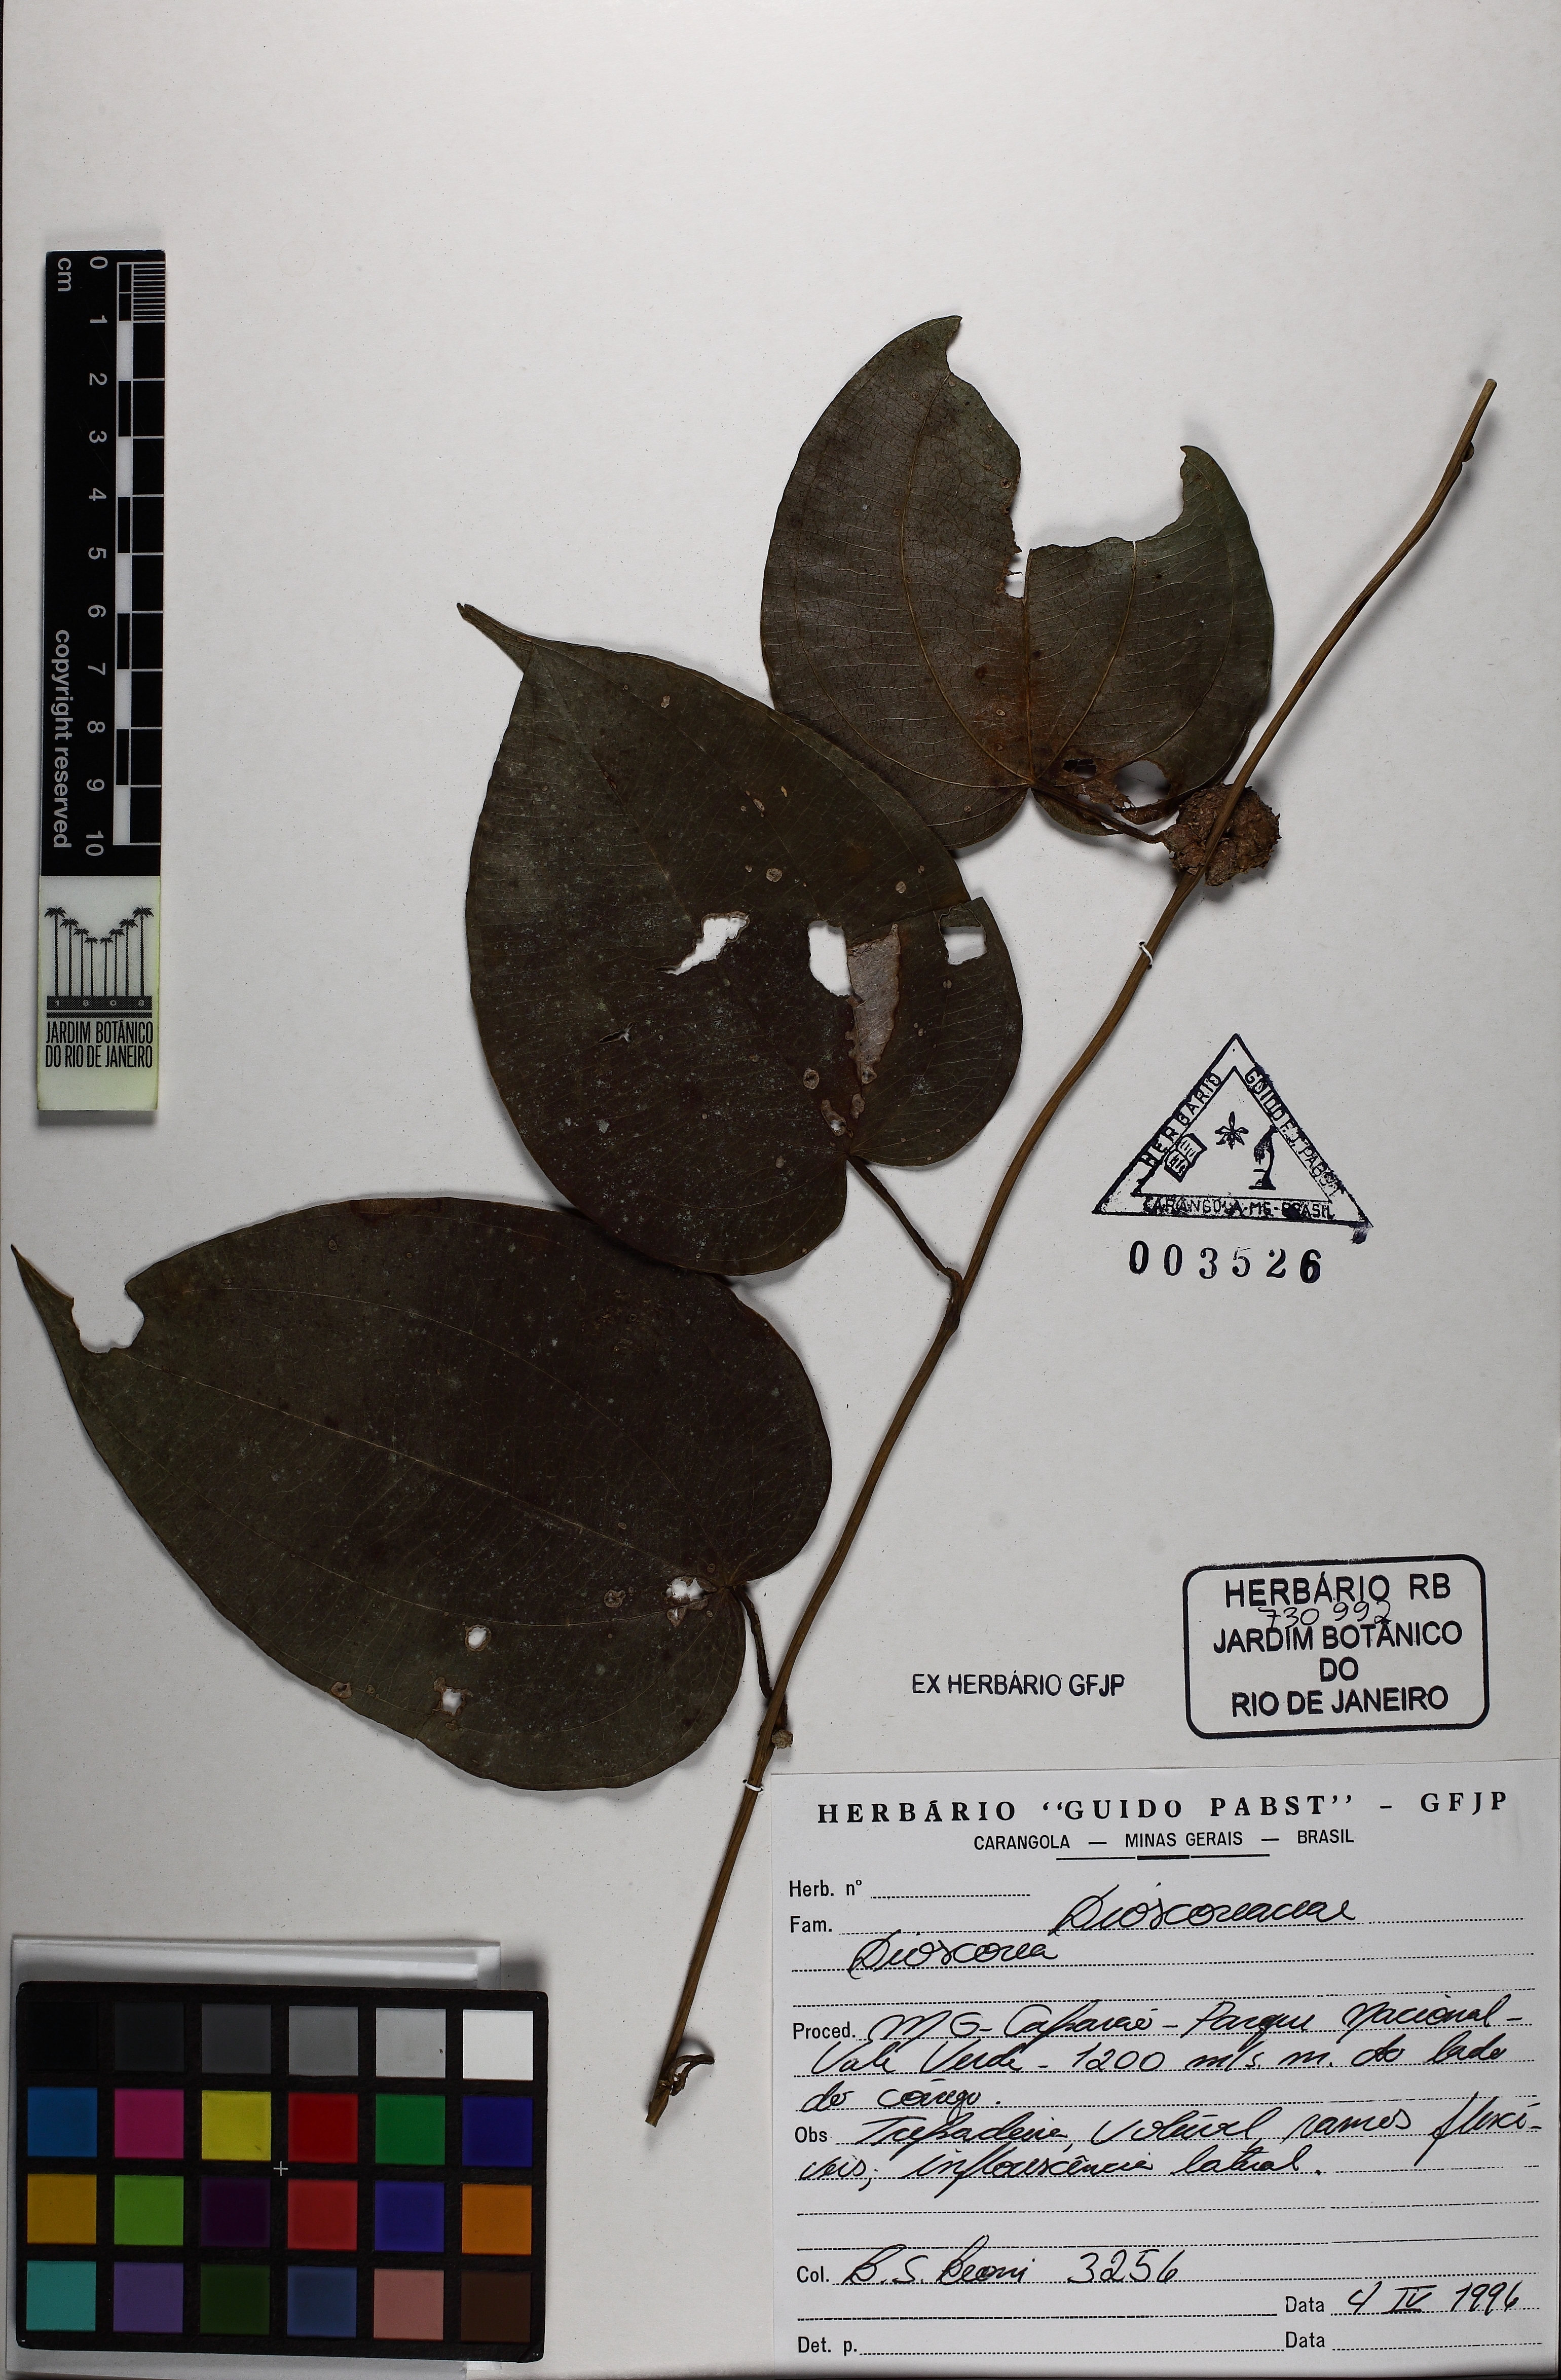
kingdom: Plantae
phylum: Tracheophyta
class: Liliopsida
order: Dioscoreales
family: Dioscoreaceae
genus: Dioscorea
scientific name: Dioscorea campanulata
